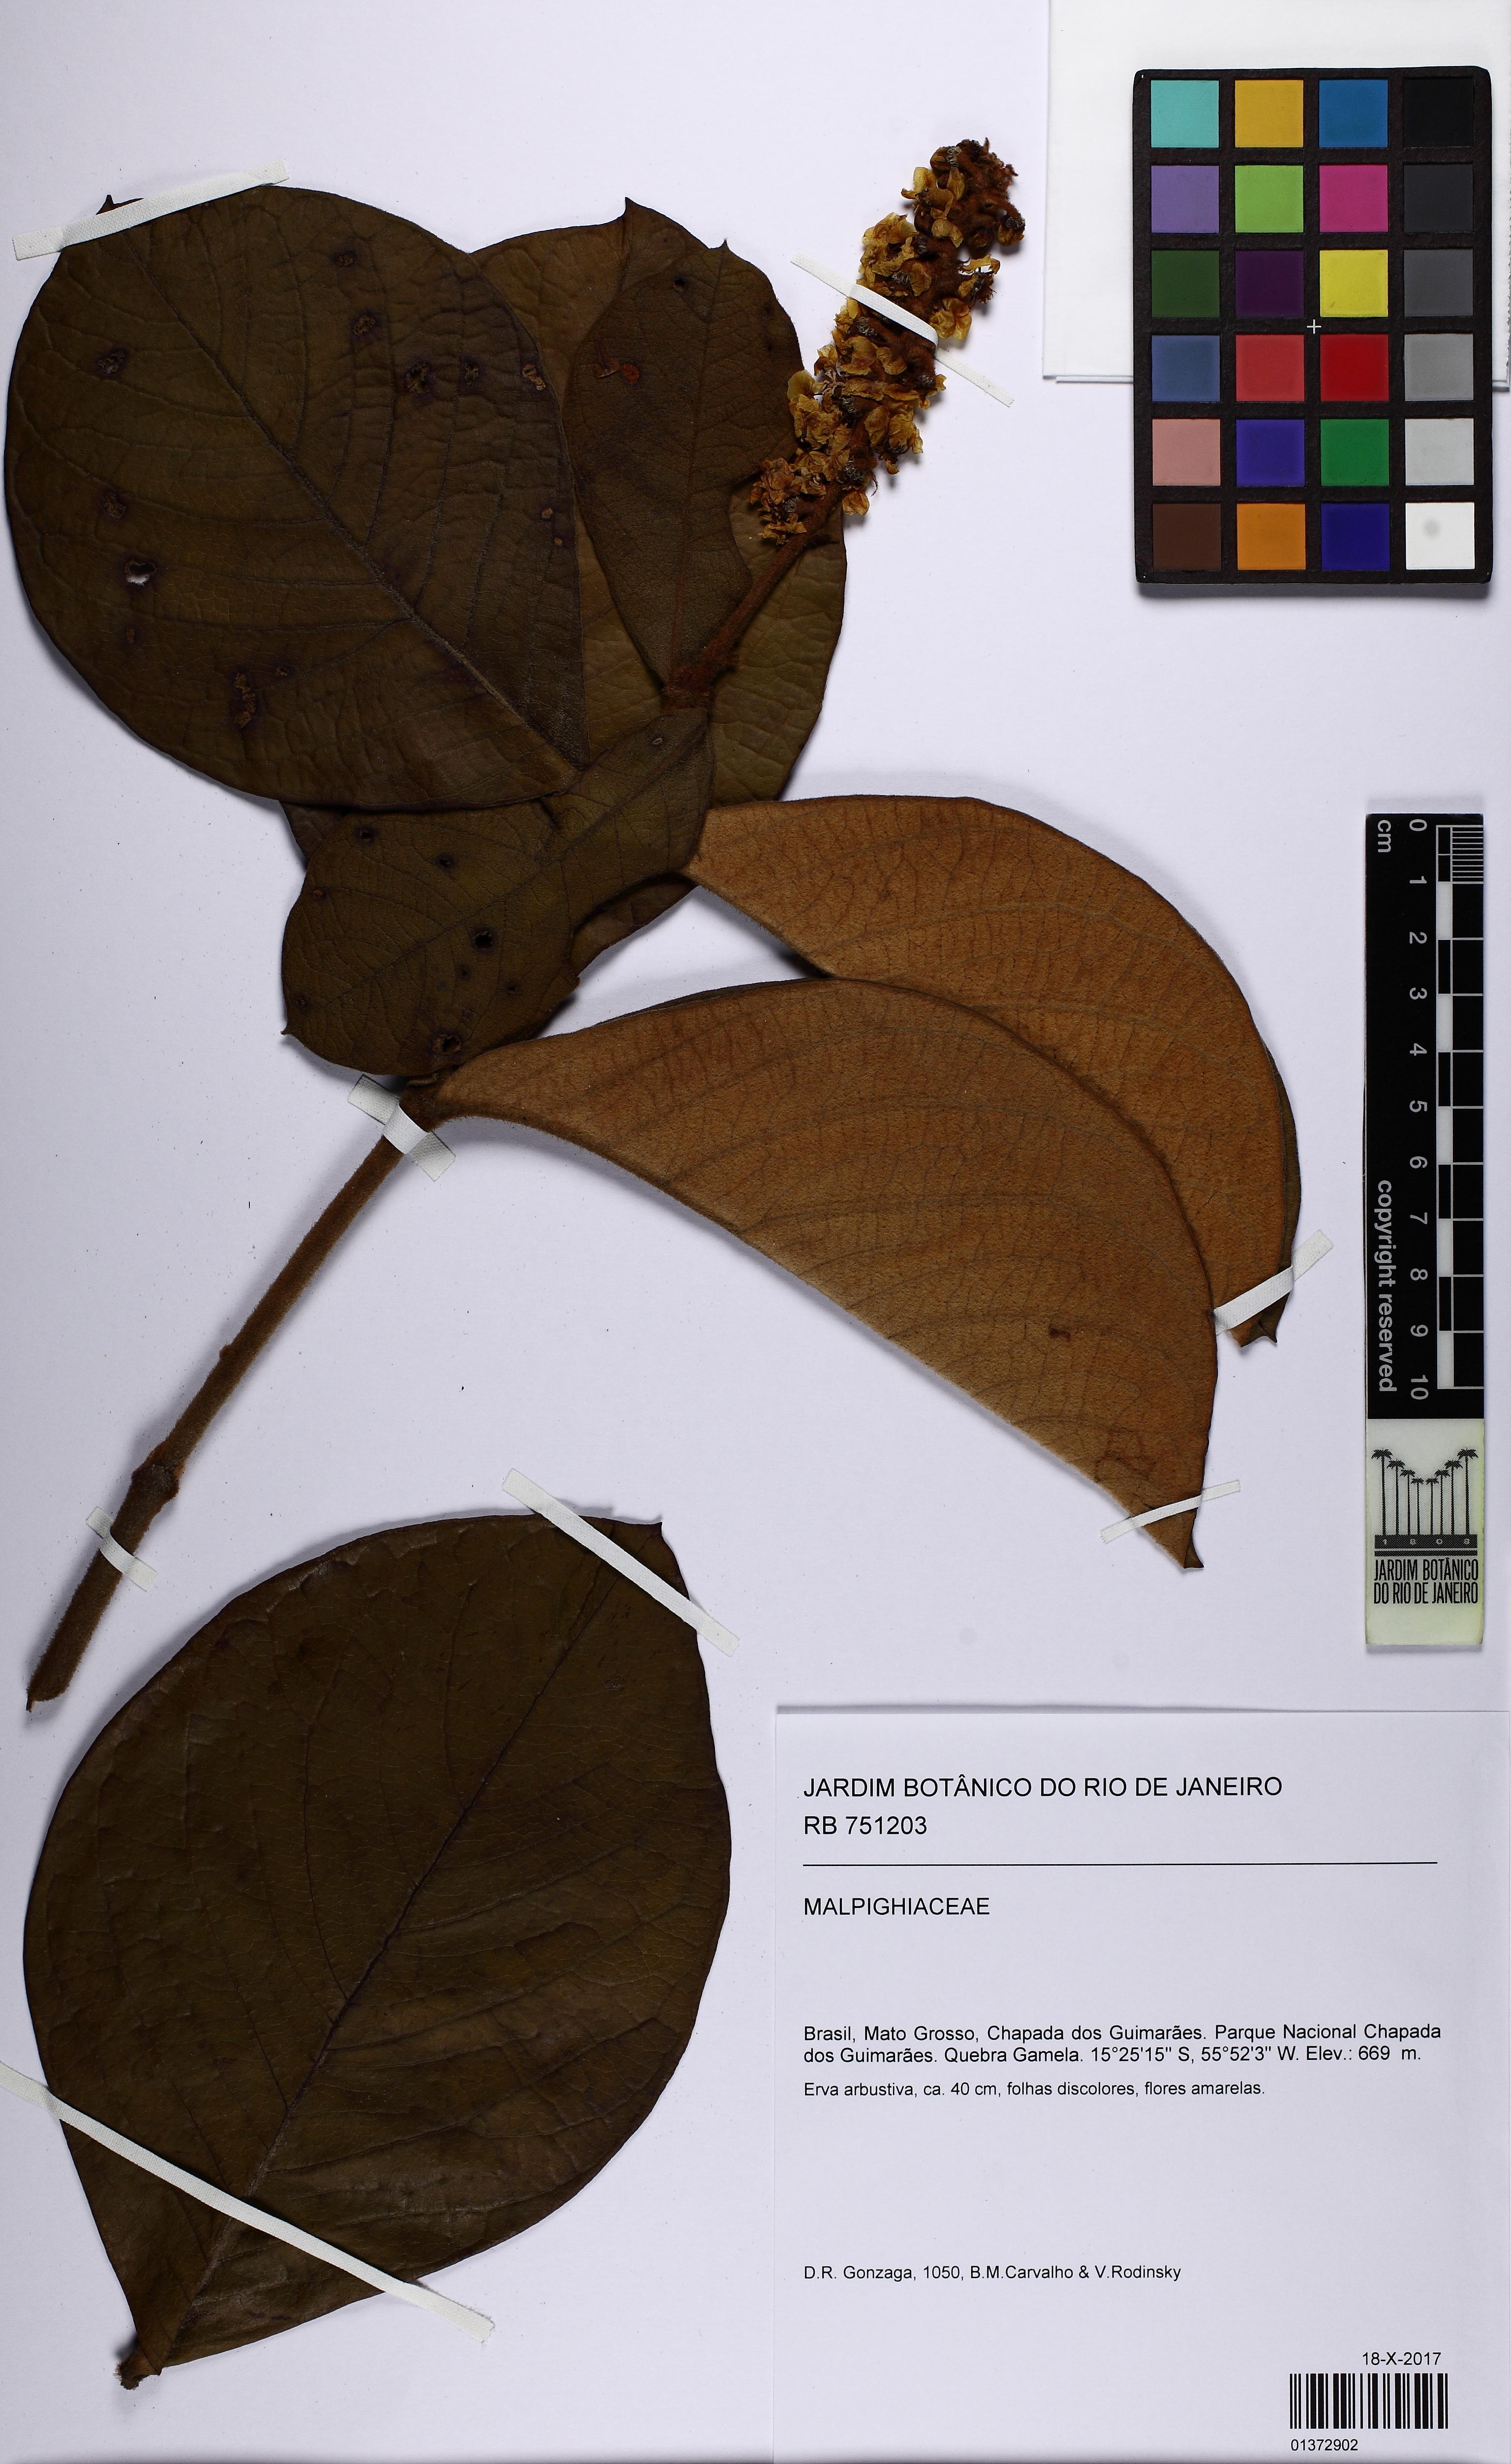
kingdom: Plantae
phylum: Tracheophyta
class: Magnoliopsida
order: Malpighiales
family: Malpighiaceae
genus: Byrsonima
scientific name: Byrsonima
